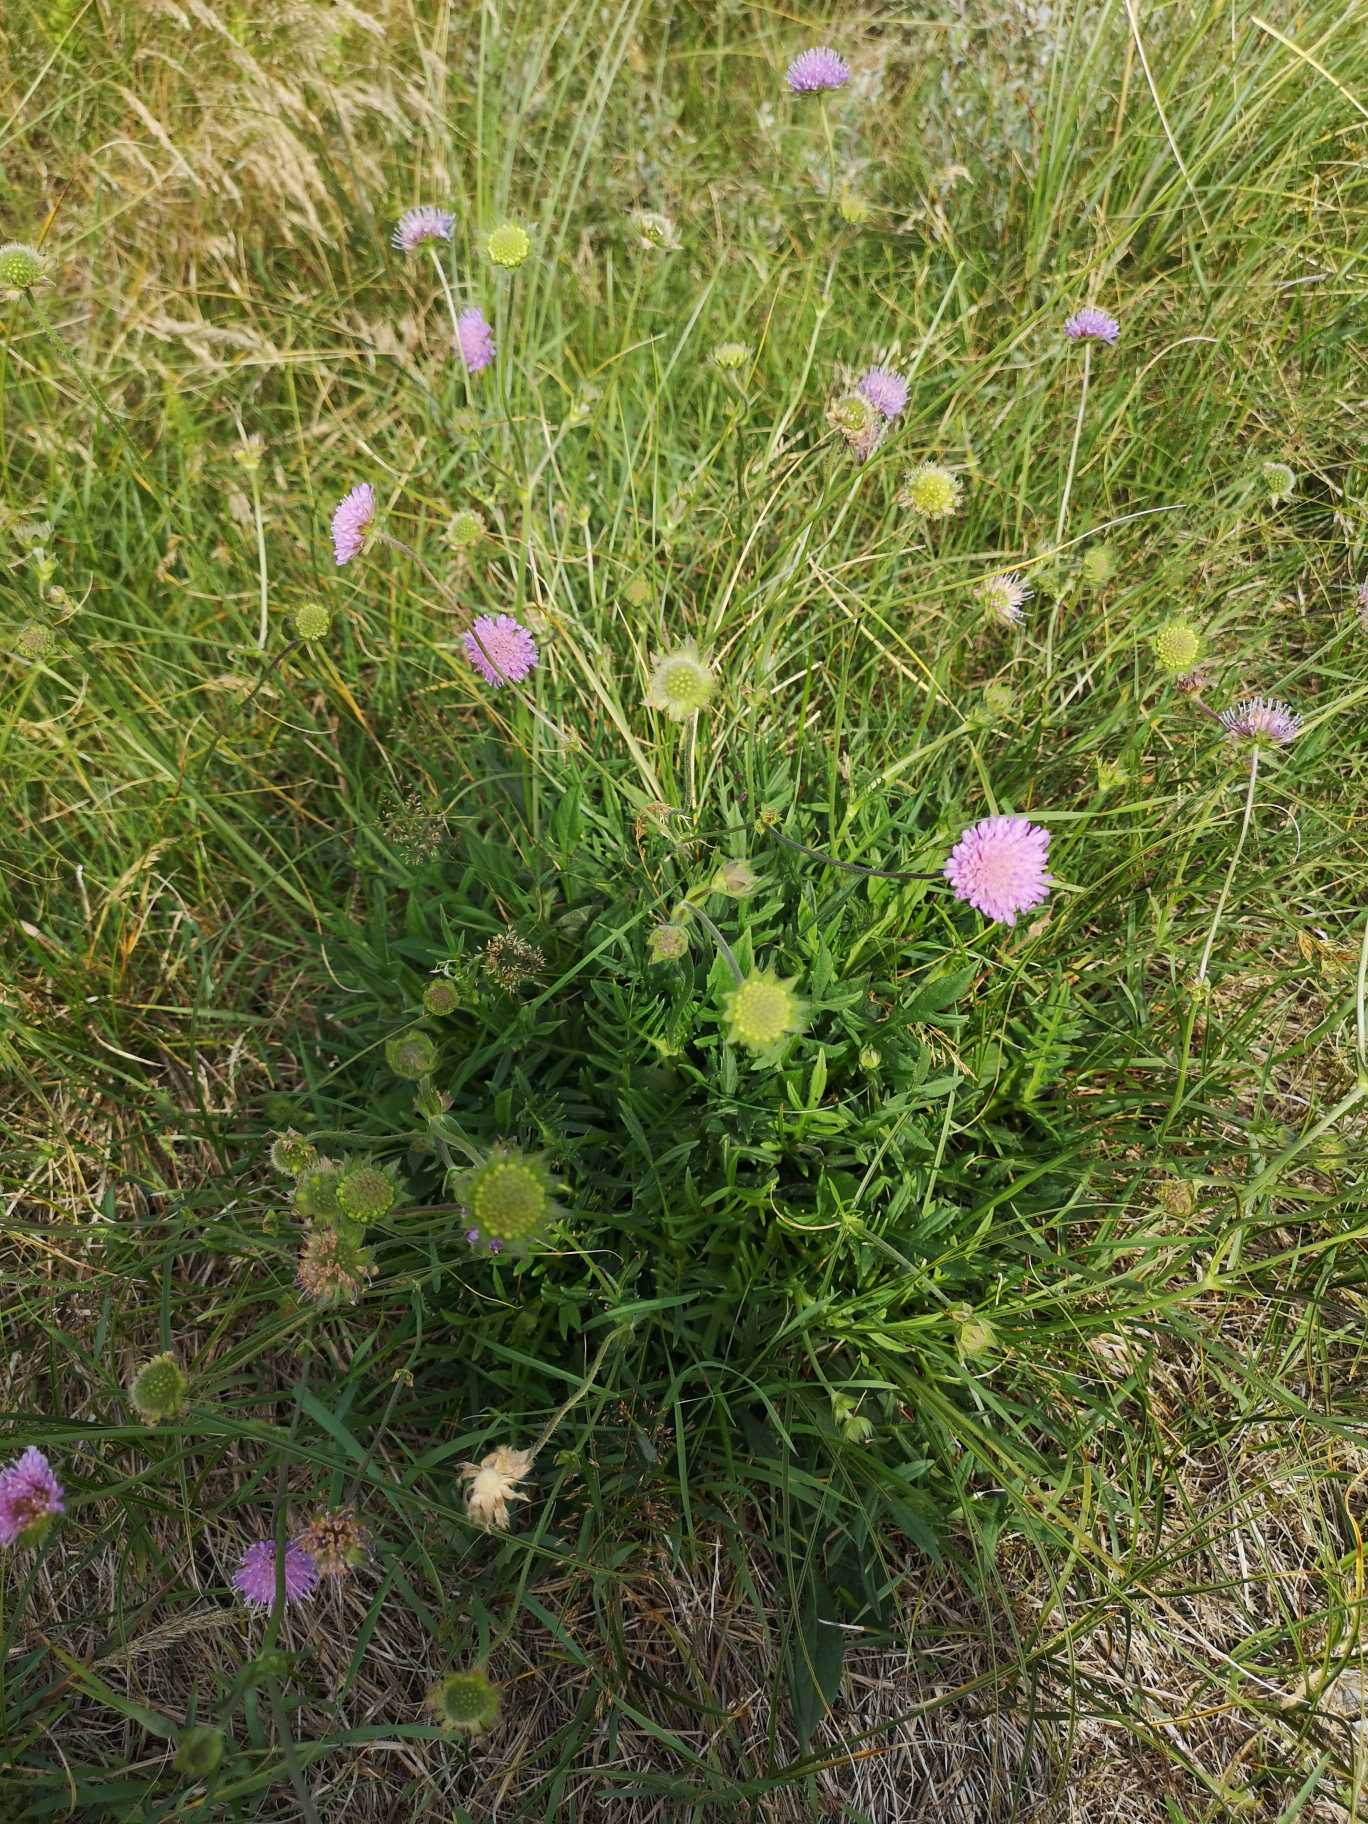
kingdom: Plantae
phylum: Tracheophyta
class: Magnoliopsida
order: Dipsacales
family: Caprifoliaceae
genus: Knautia
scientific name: Knautia arvensis
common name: Blåhat
